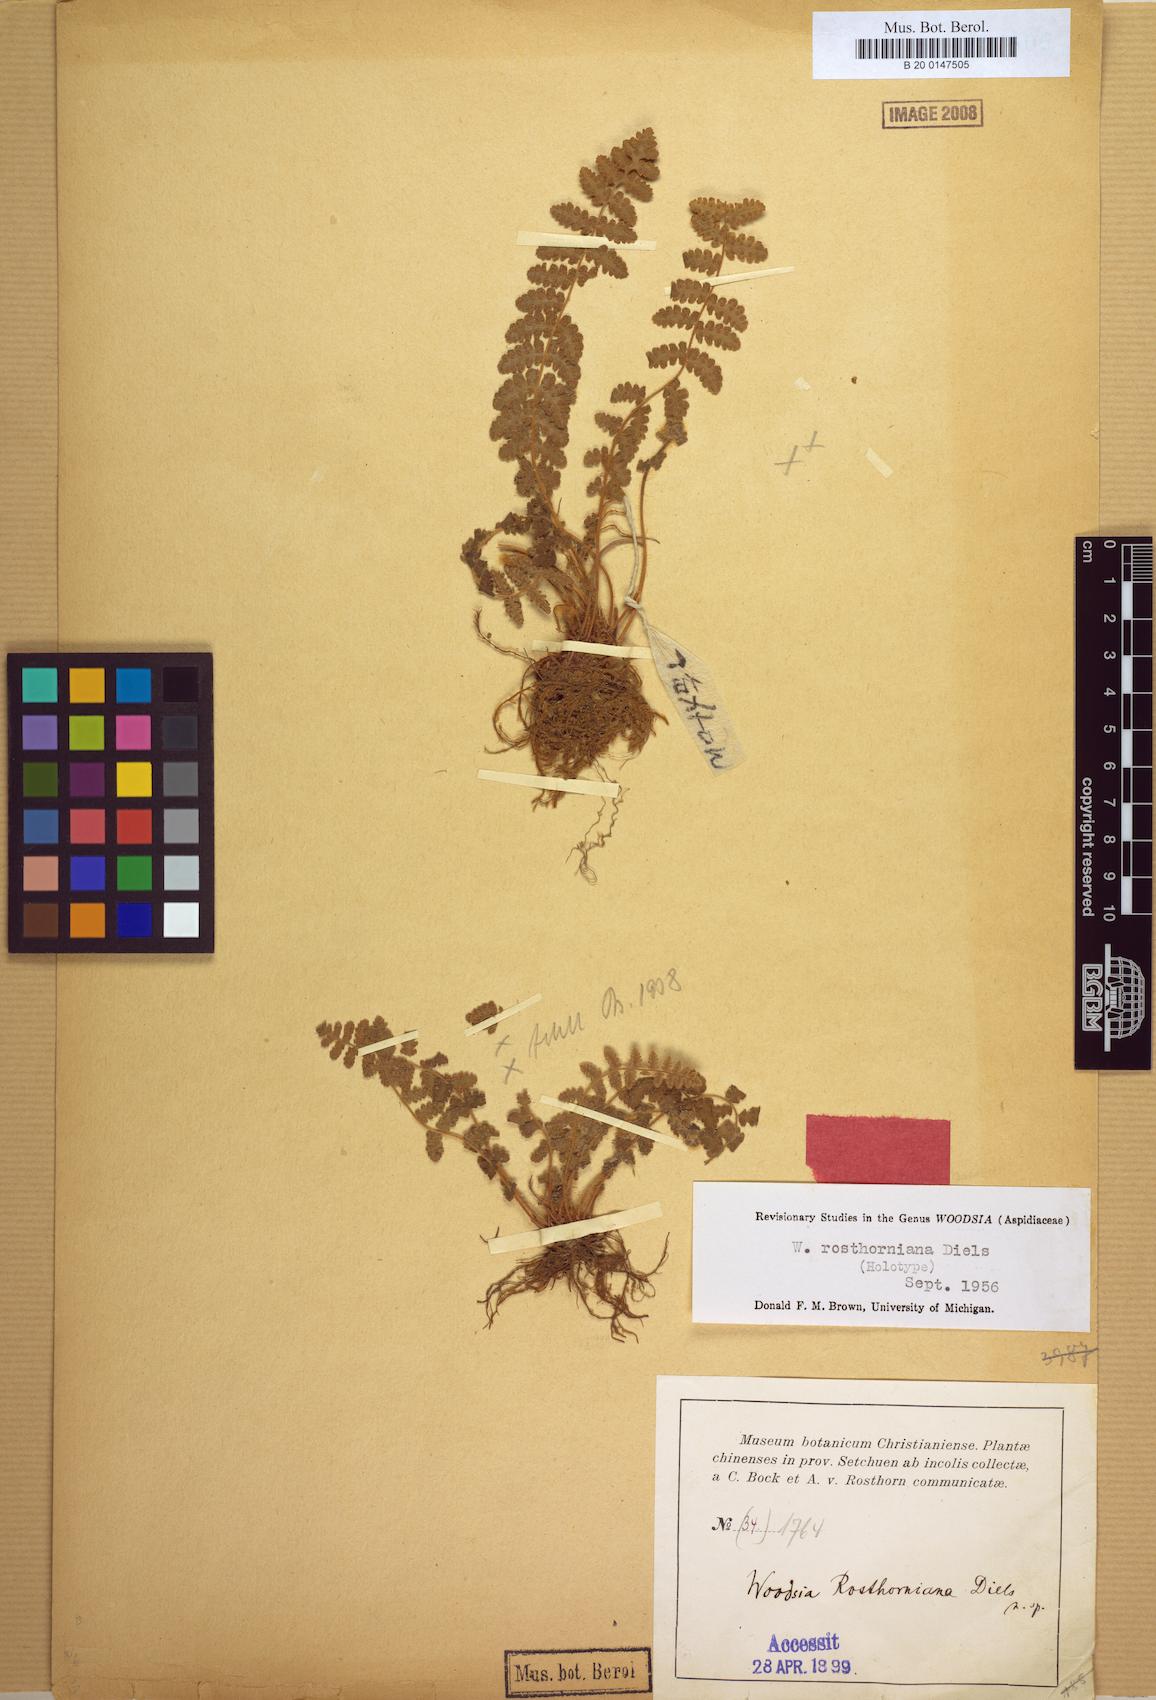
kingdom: Plantae
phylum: Tracheophyta
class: Polypodiopsida
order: Polypodiales
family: Woodsiaceae
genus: Woodsia
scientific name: Woodsia rosthorniana
